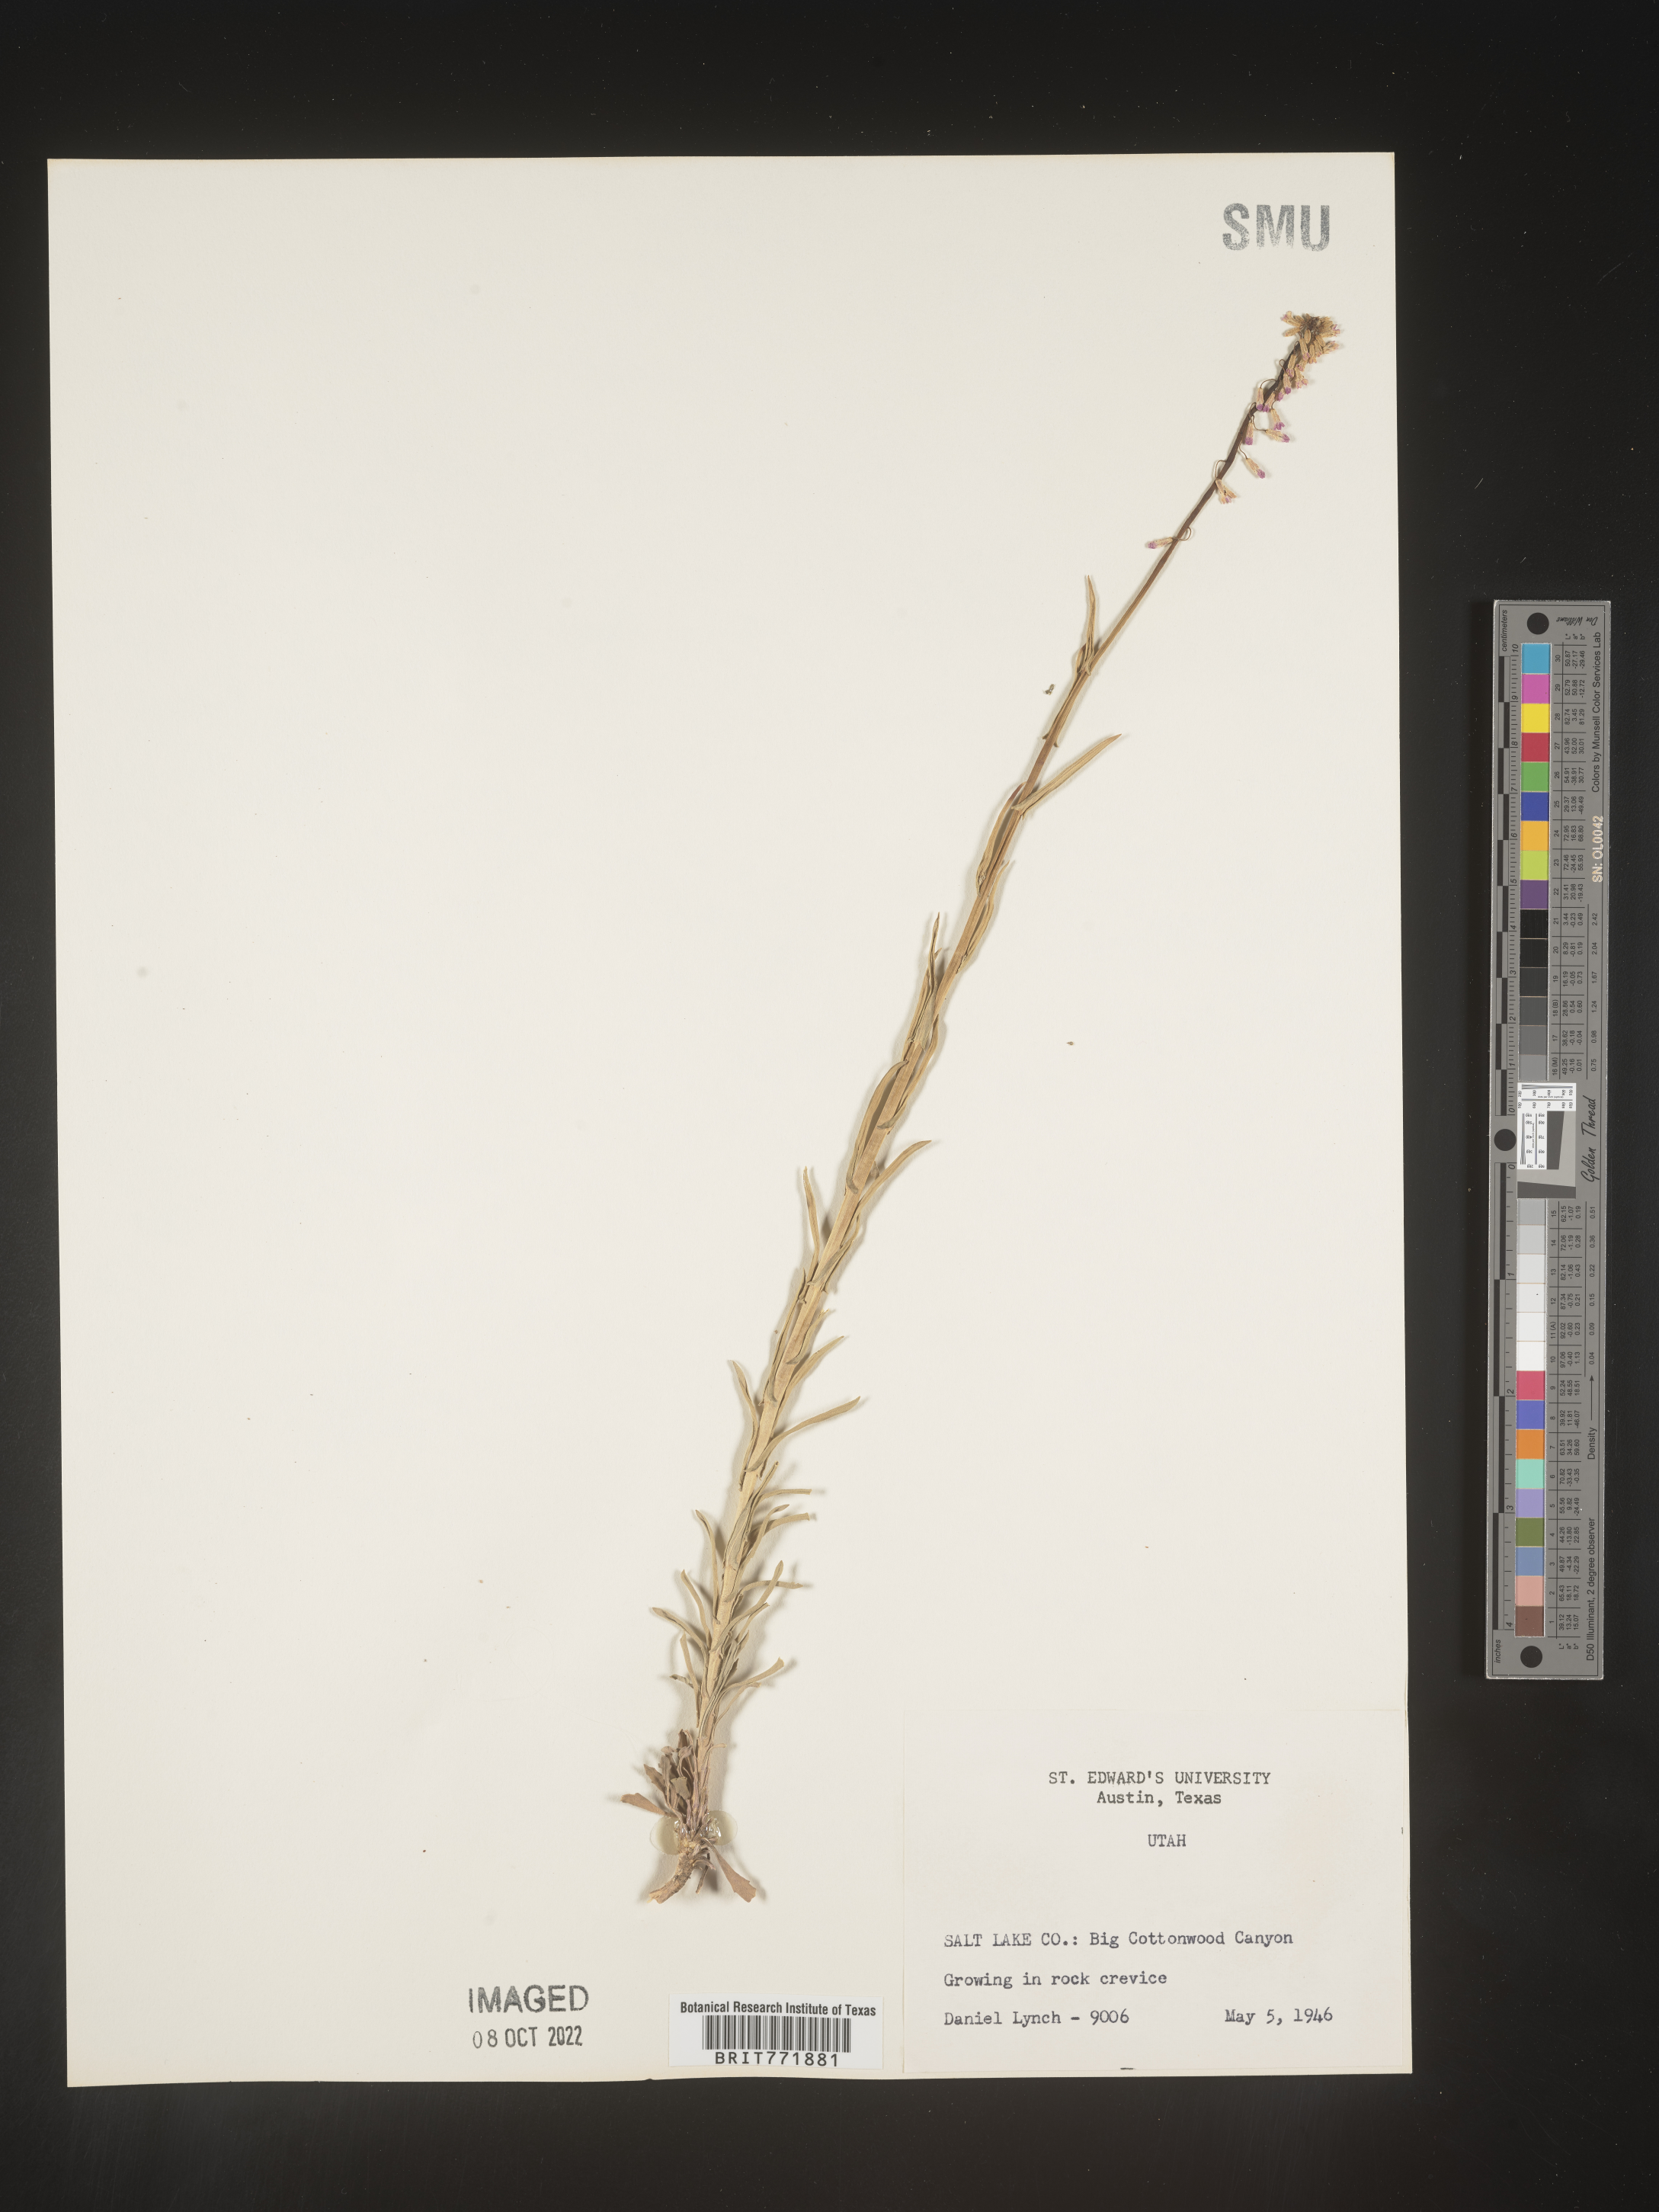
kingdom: Plantae
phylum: Tracheophyta
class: Magnoliopsida
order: Brassicales
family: Brassicaceae
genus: Arabis
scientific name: Arabis
